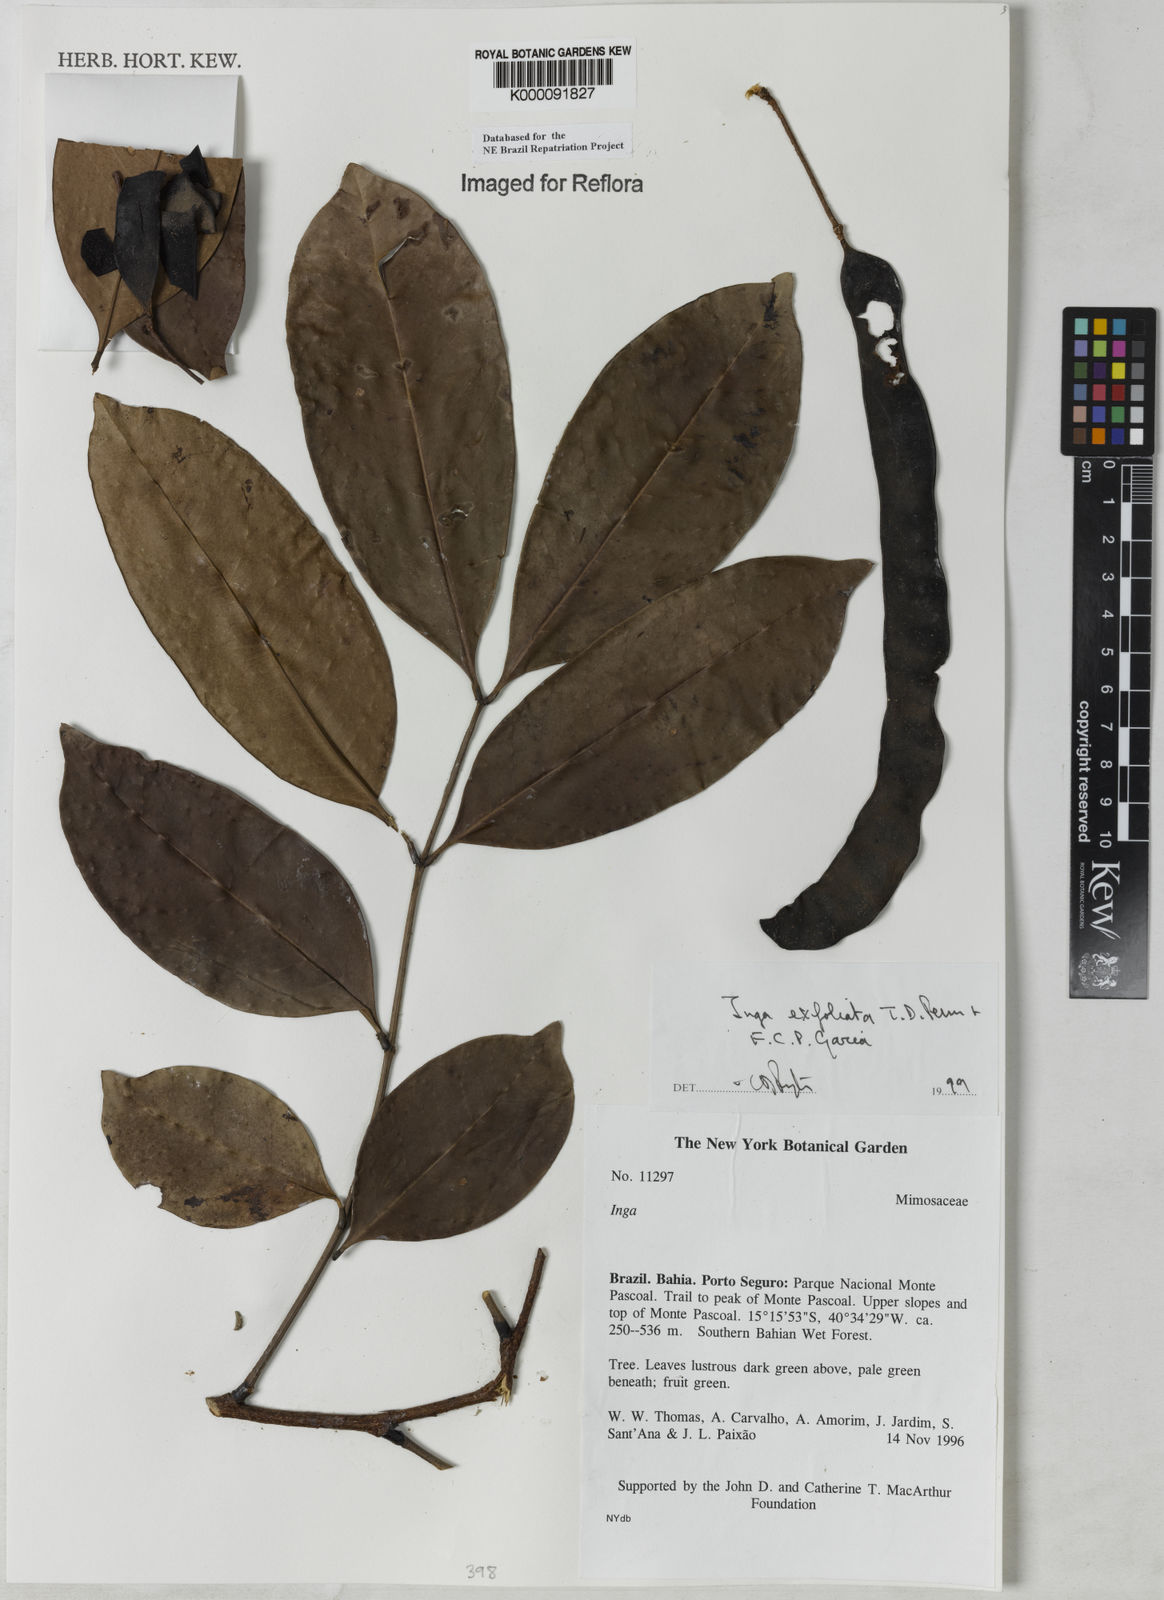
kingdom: Plantae
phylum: Tracheophyta
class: Magnoliopsida
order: Fabales
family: Fabaceae
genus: Inga
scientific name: Inga
